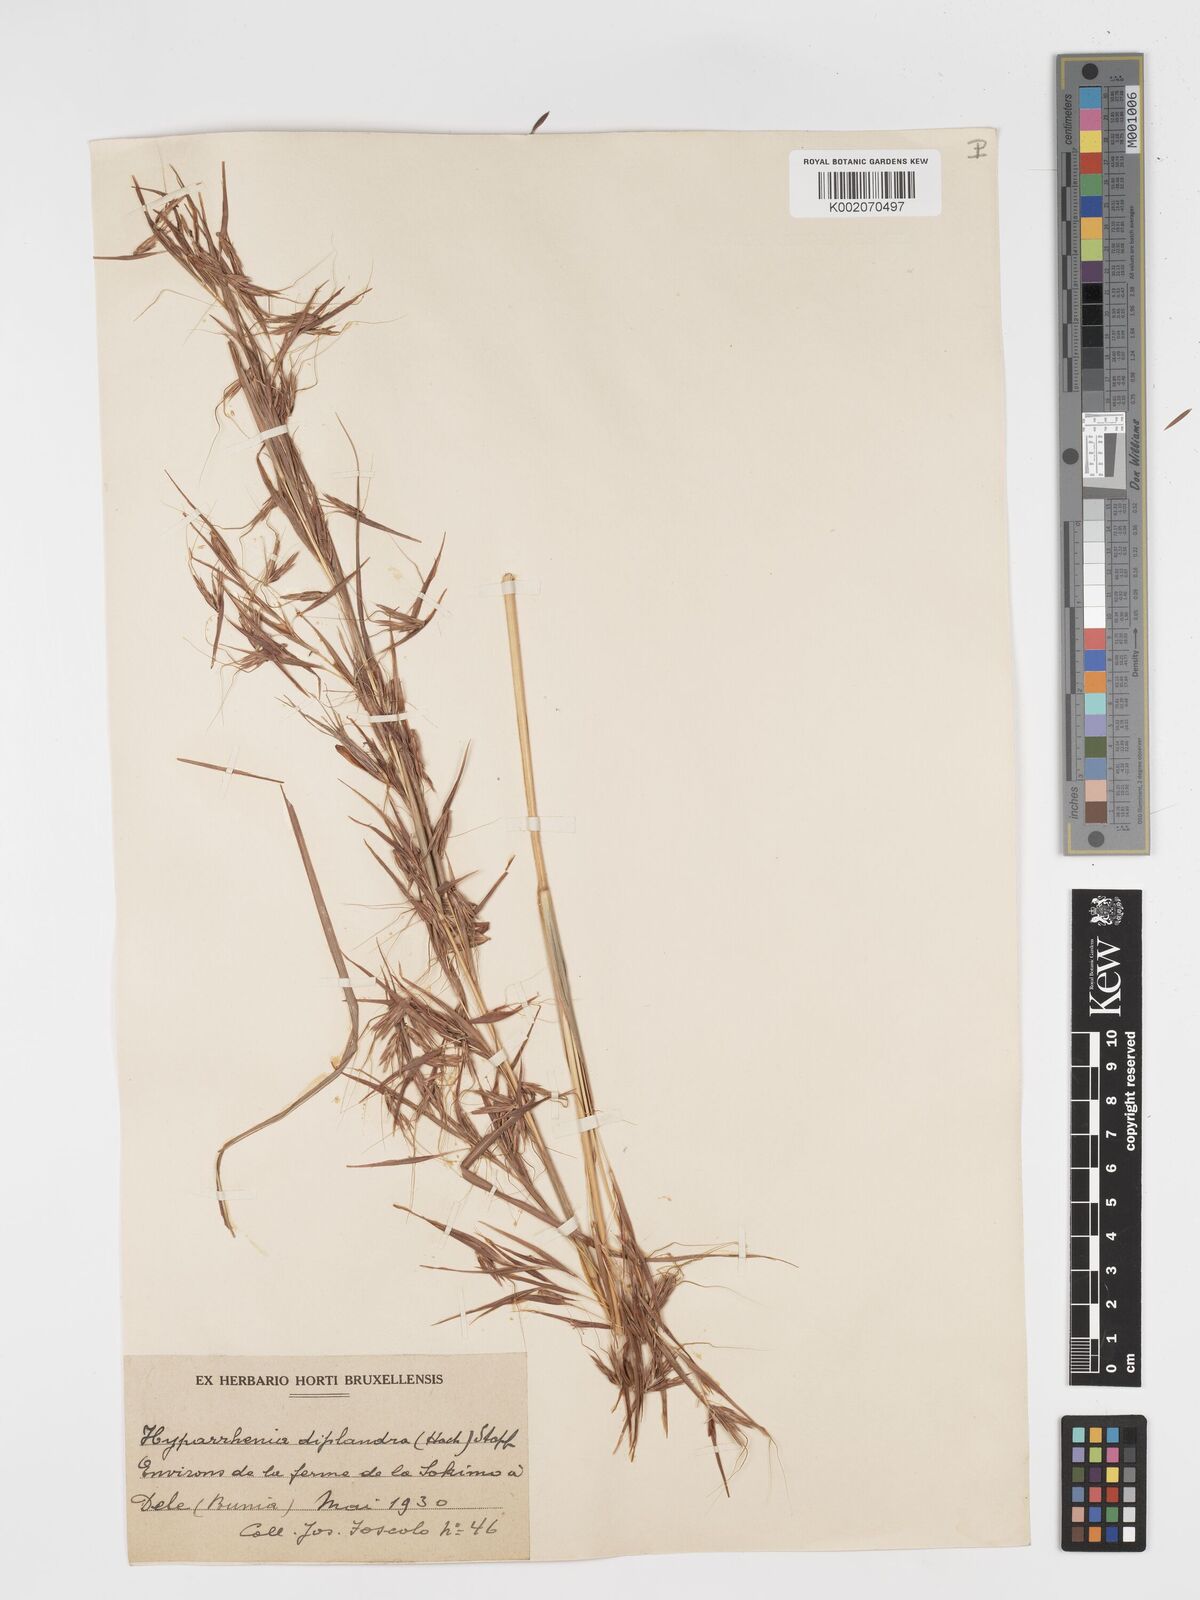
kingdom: Plantae
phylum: Tracheophyta
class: Liliopsida
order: Poales
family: Poaceae
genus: Hyparrhenia
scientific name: Hyparrhenia diplandra
